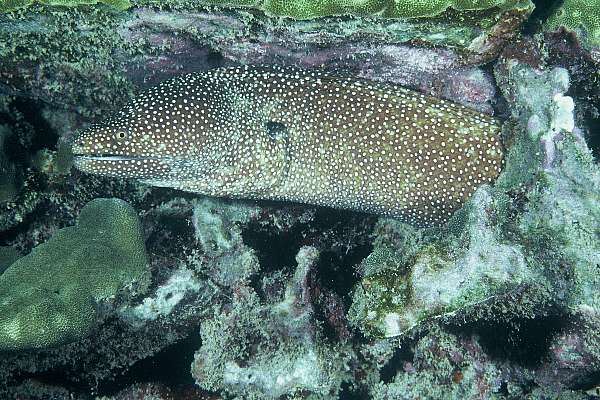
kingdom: Animalia
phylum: Chordata
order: Anguilliformes
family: Muraenidae
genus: Gymnothorax
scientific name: Gymnothorax meleagris
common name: Guineafowl moray
